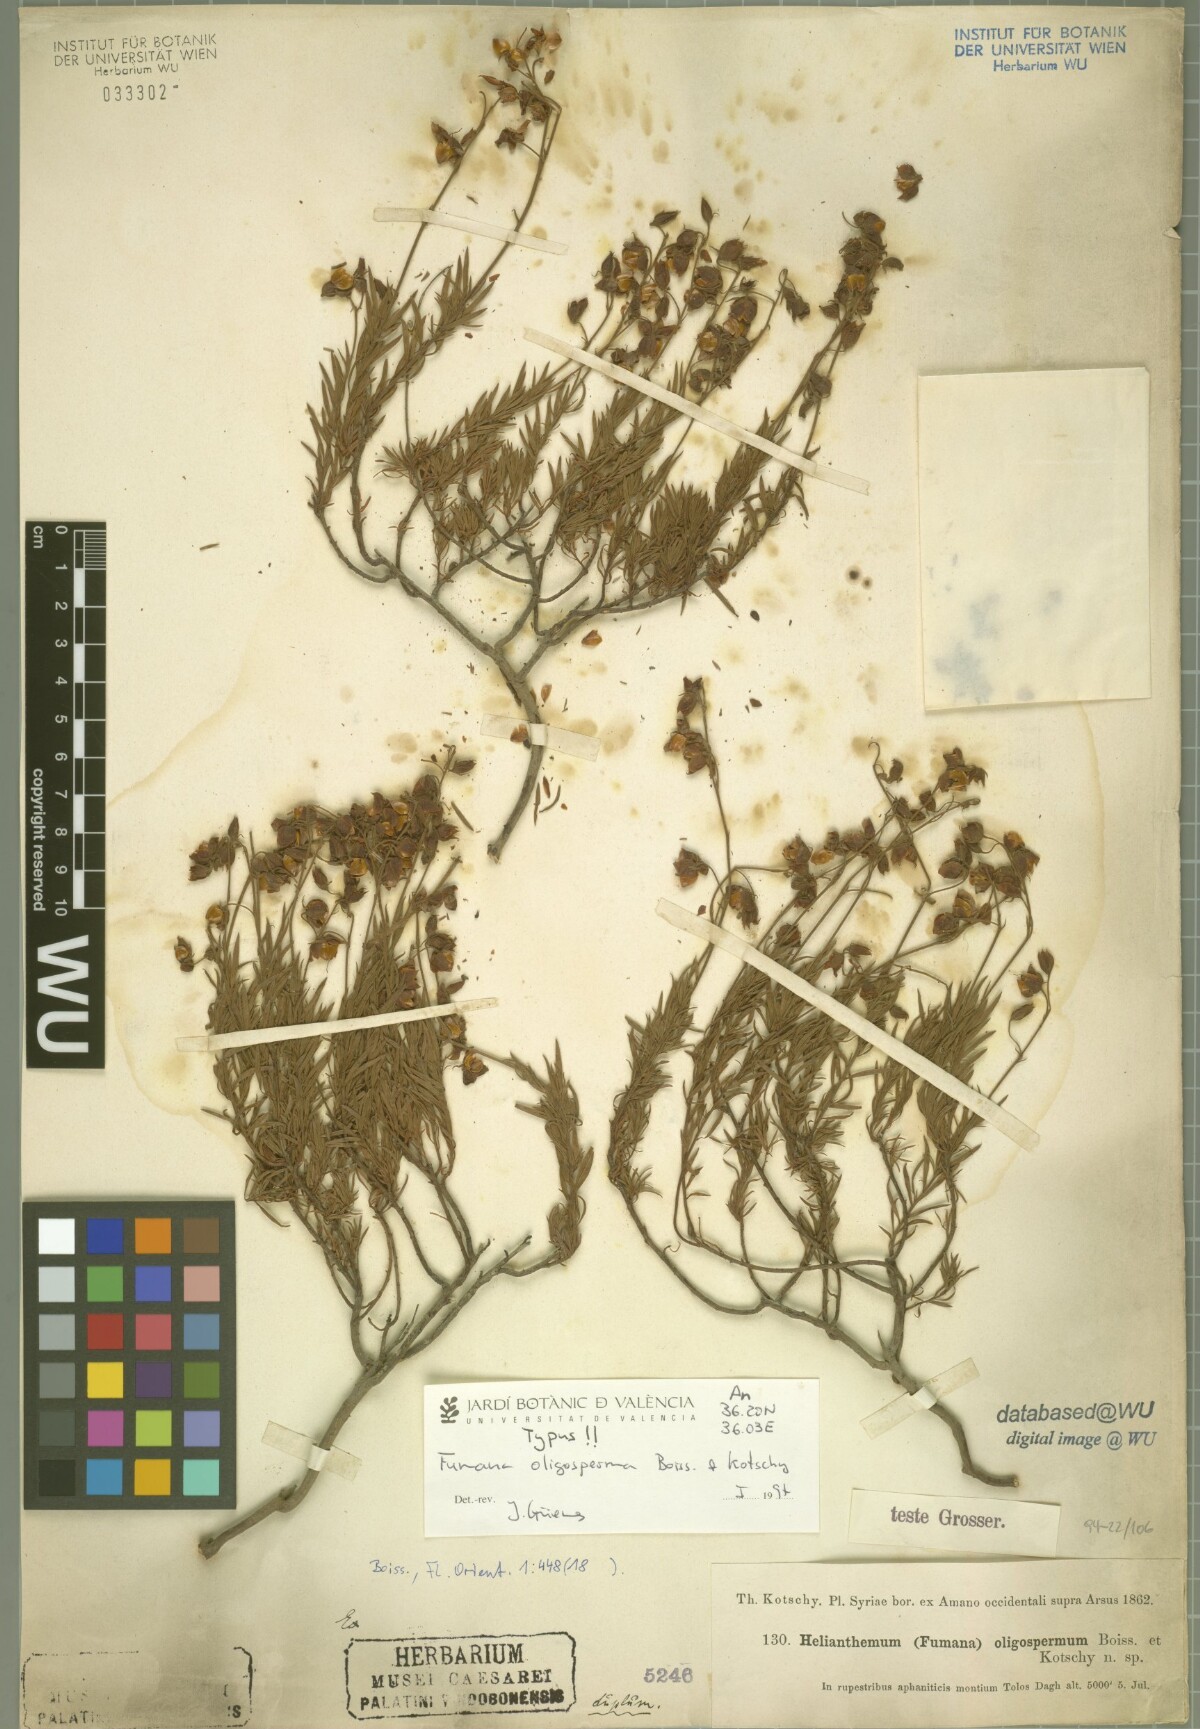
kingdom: Plantae
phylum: Tracheophyta
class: Magnoliopsida
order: Malvales
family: Cistaceae
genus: Fumana
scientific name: Fumana oligosperma
